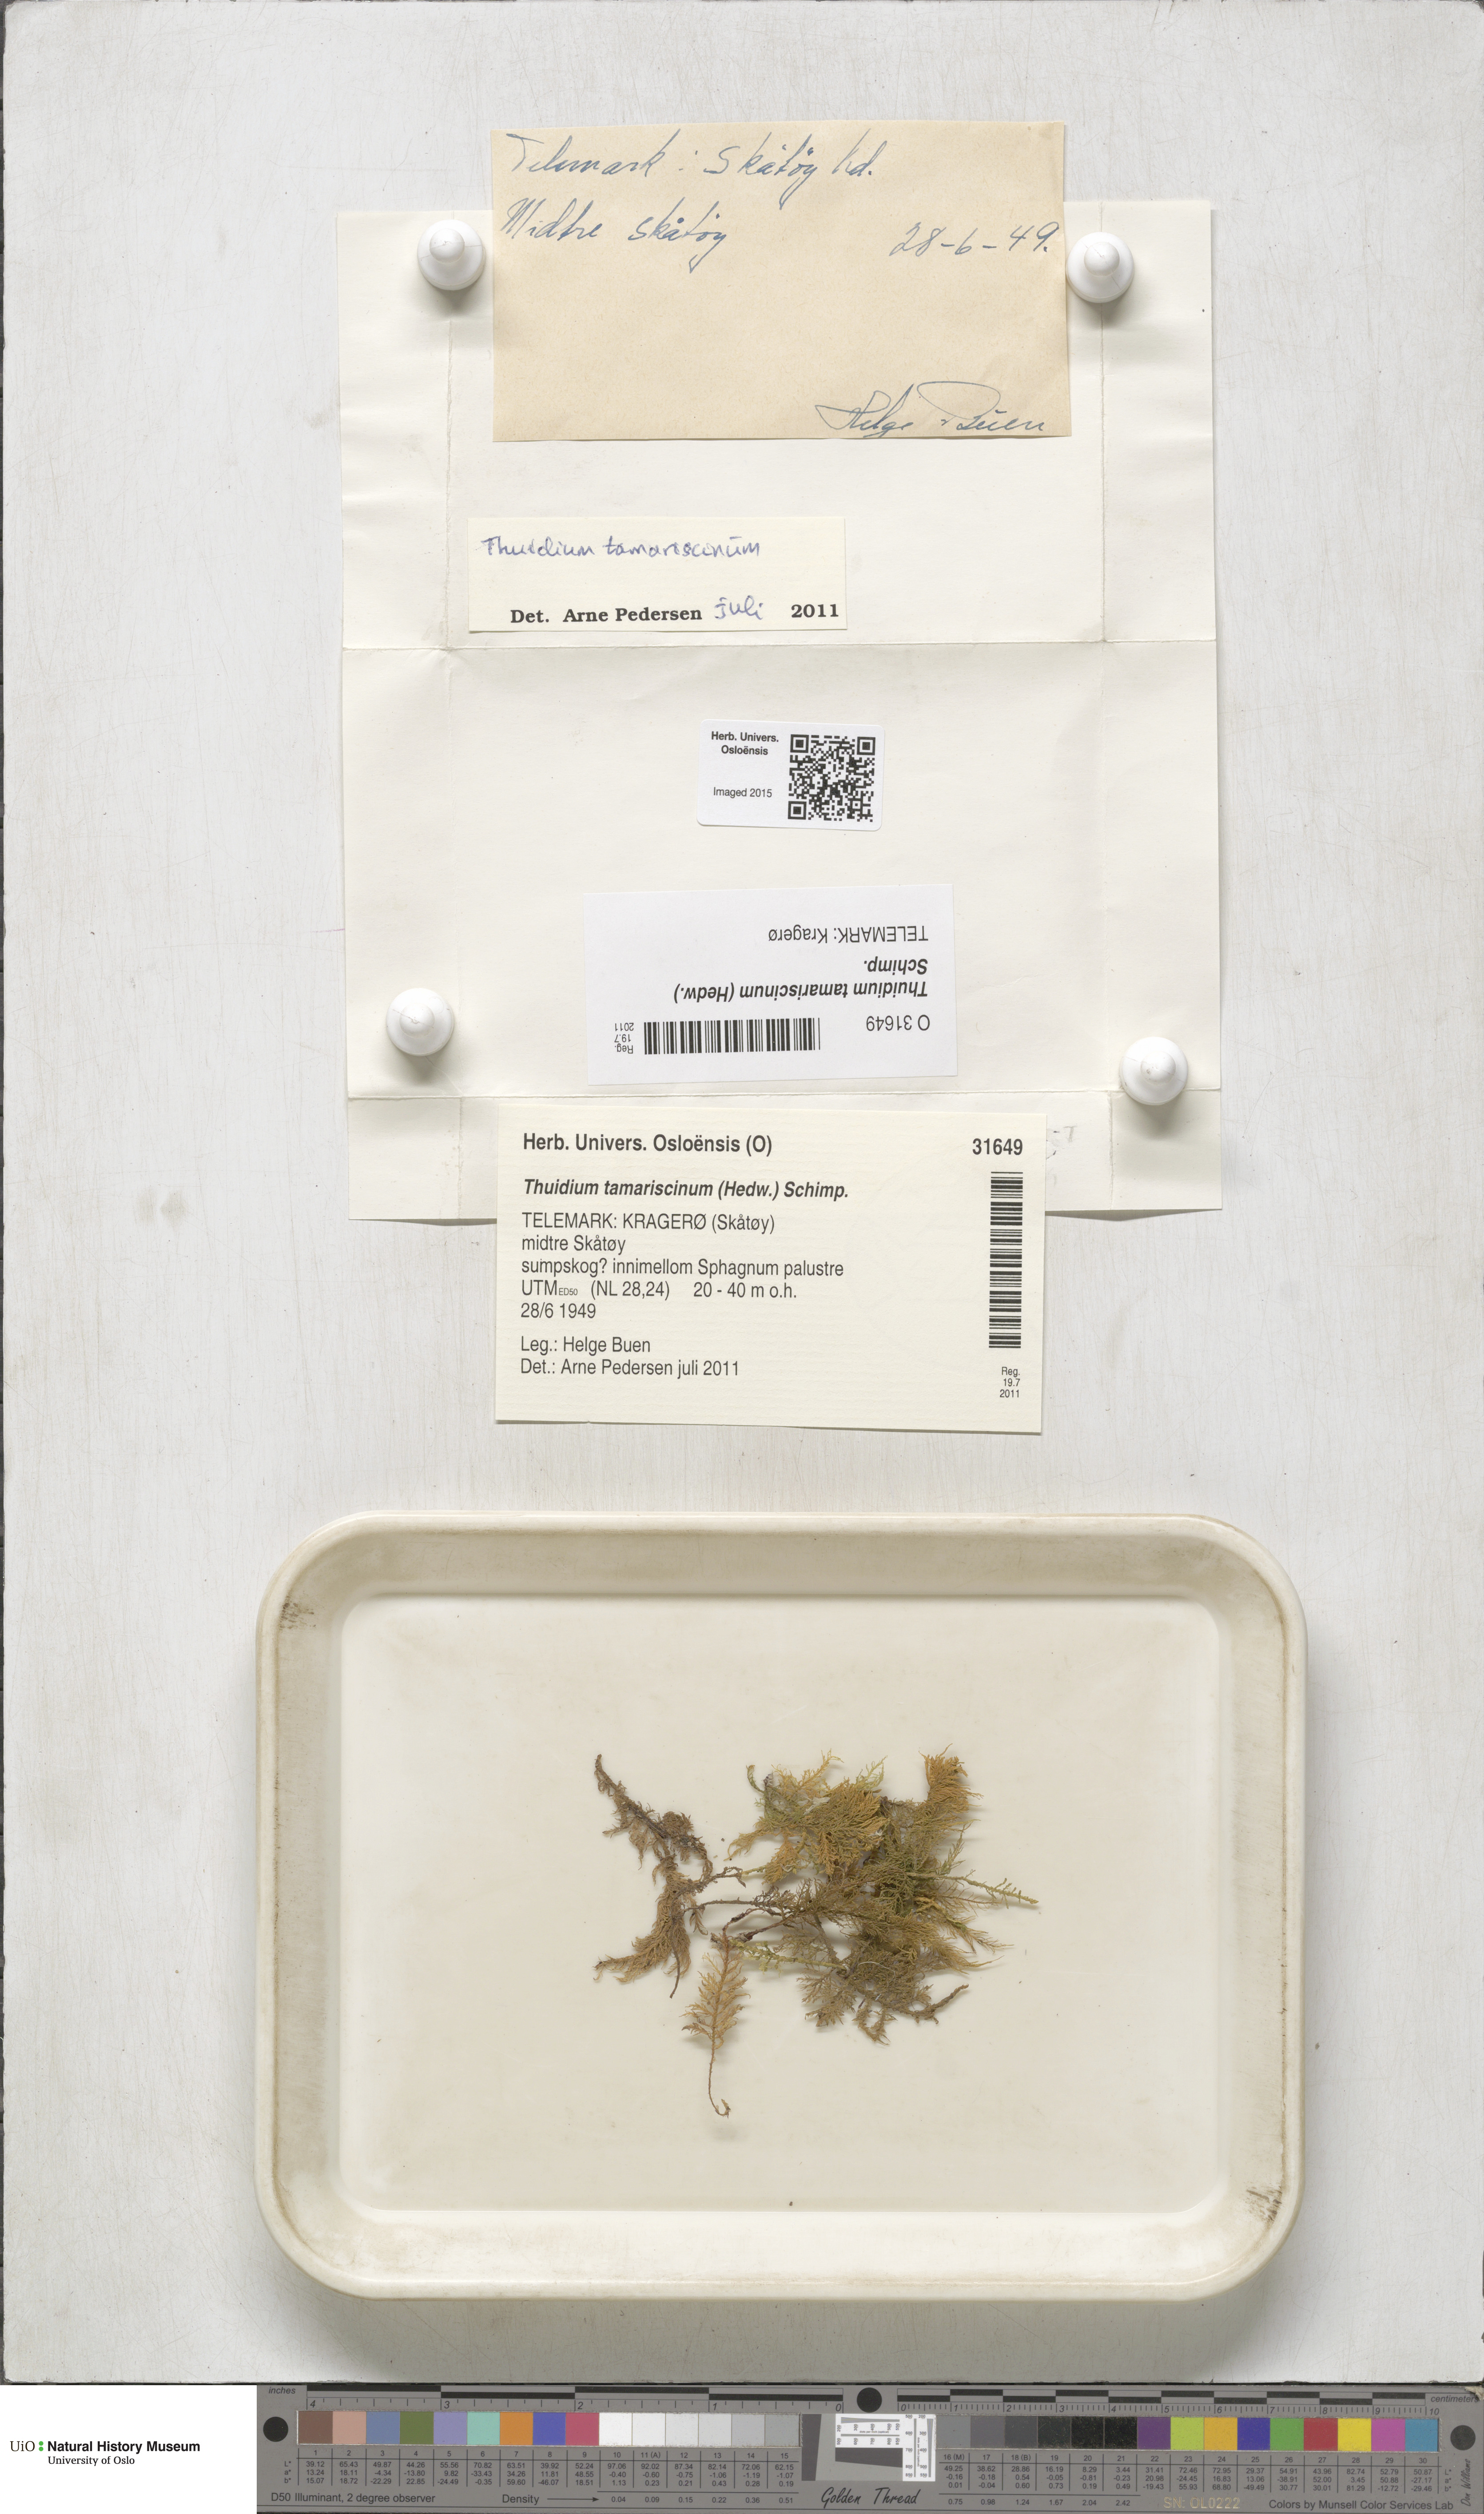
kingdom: Plantae
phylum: Bryophyta
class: Bryopsida
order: Hypnales
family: Thuidiaceae
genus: Thuidium
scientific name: Thuidium tamariscinum
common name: Common tamarisk-moss
